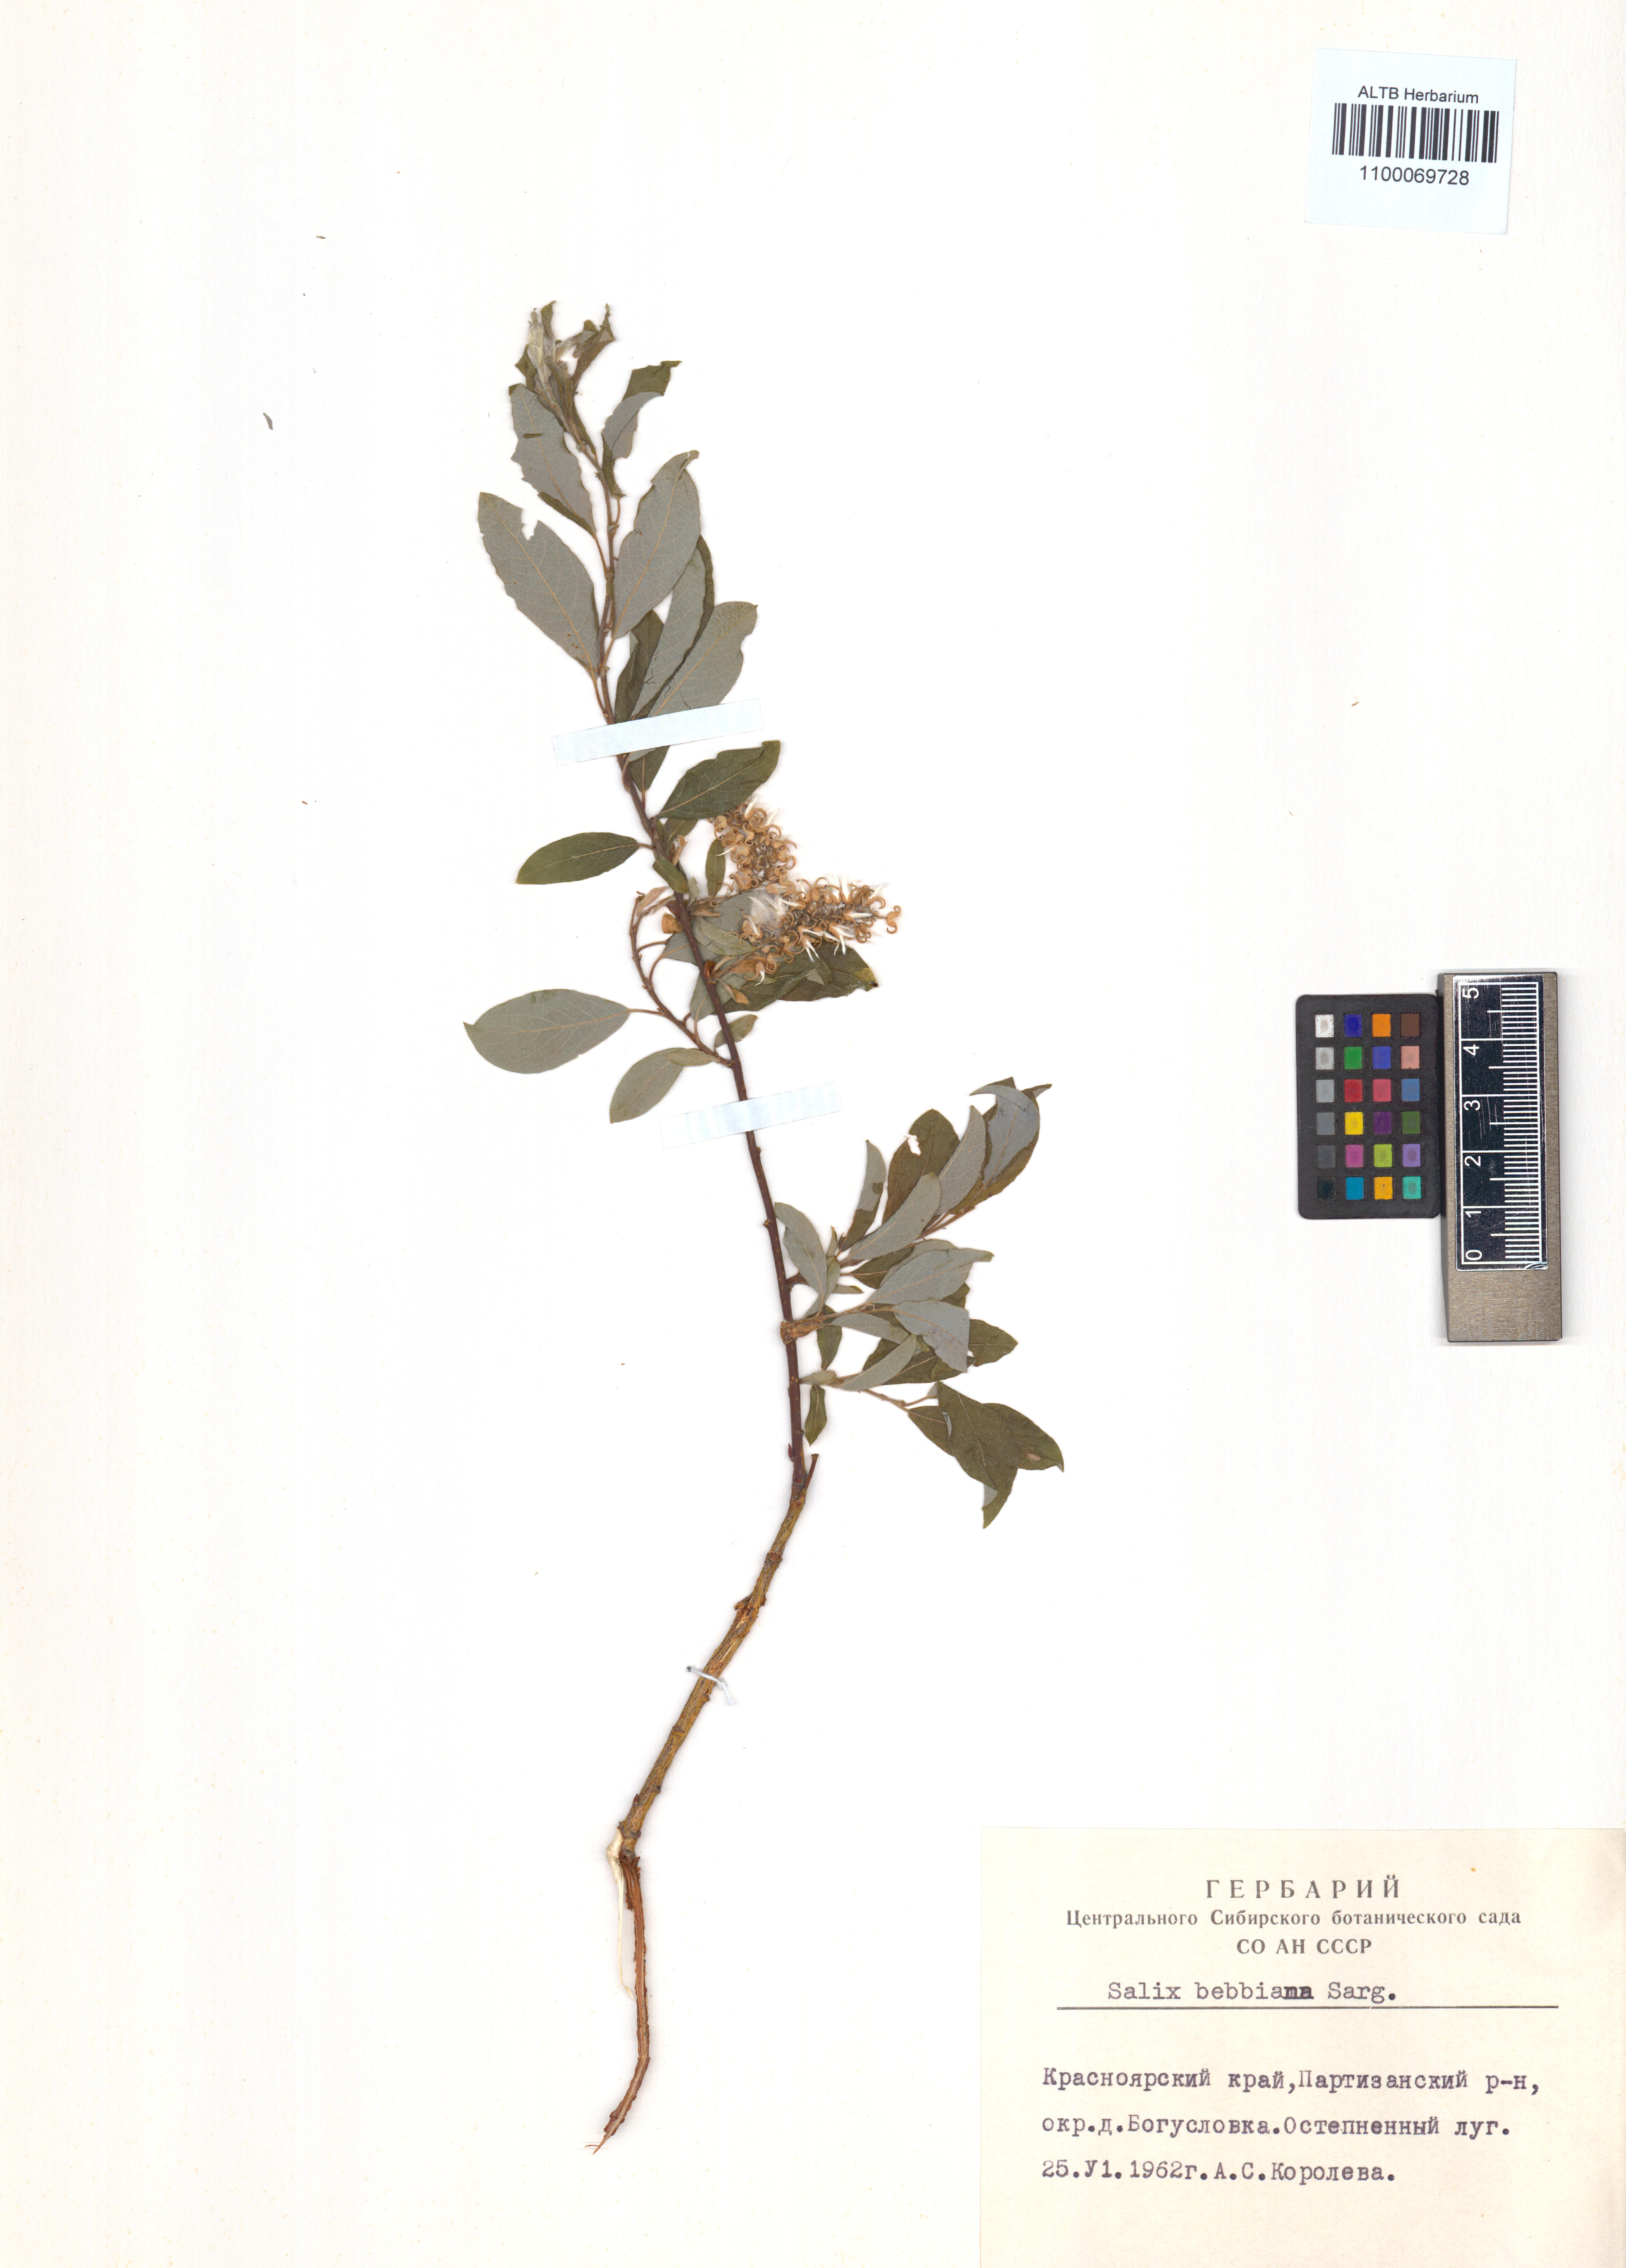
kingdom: Plantae
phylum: Tracheophyta
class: Magnoliopsida
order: Malpighiales
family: Salicaceae
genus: Salix
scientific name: Salix bebbiana
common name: Bebb's willow
